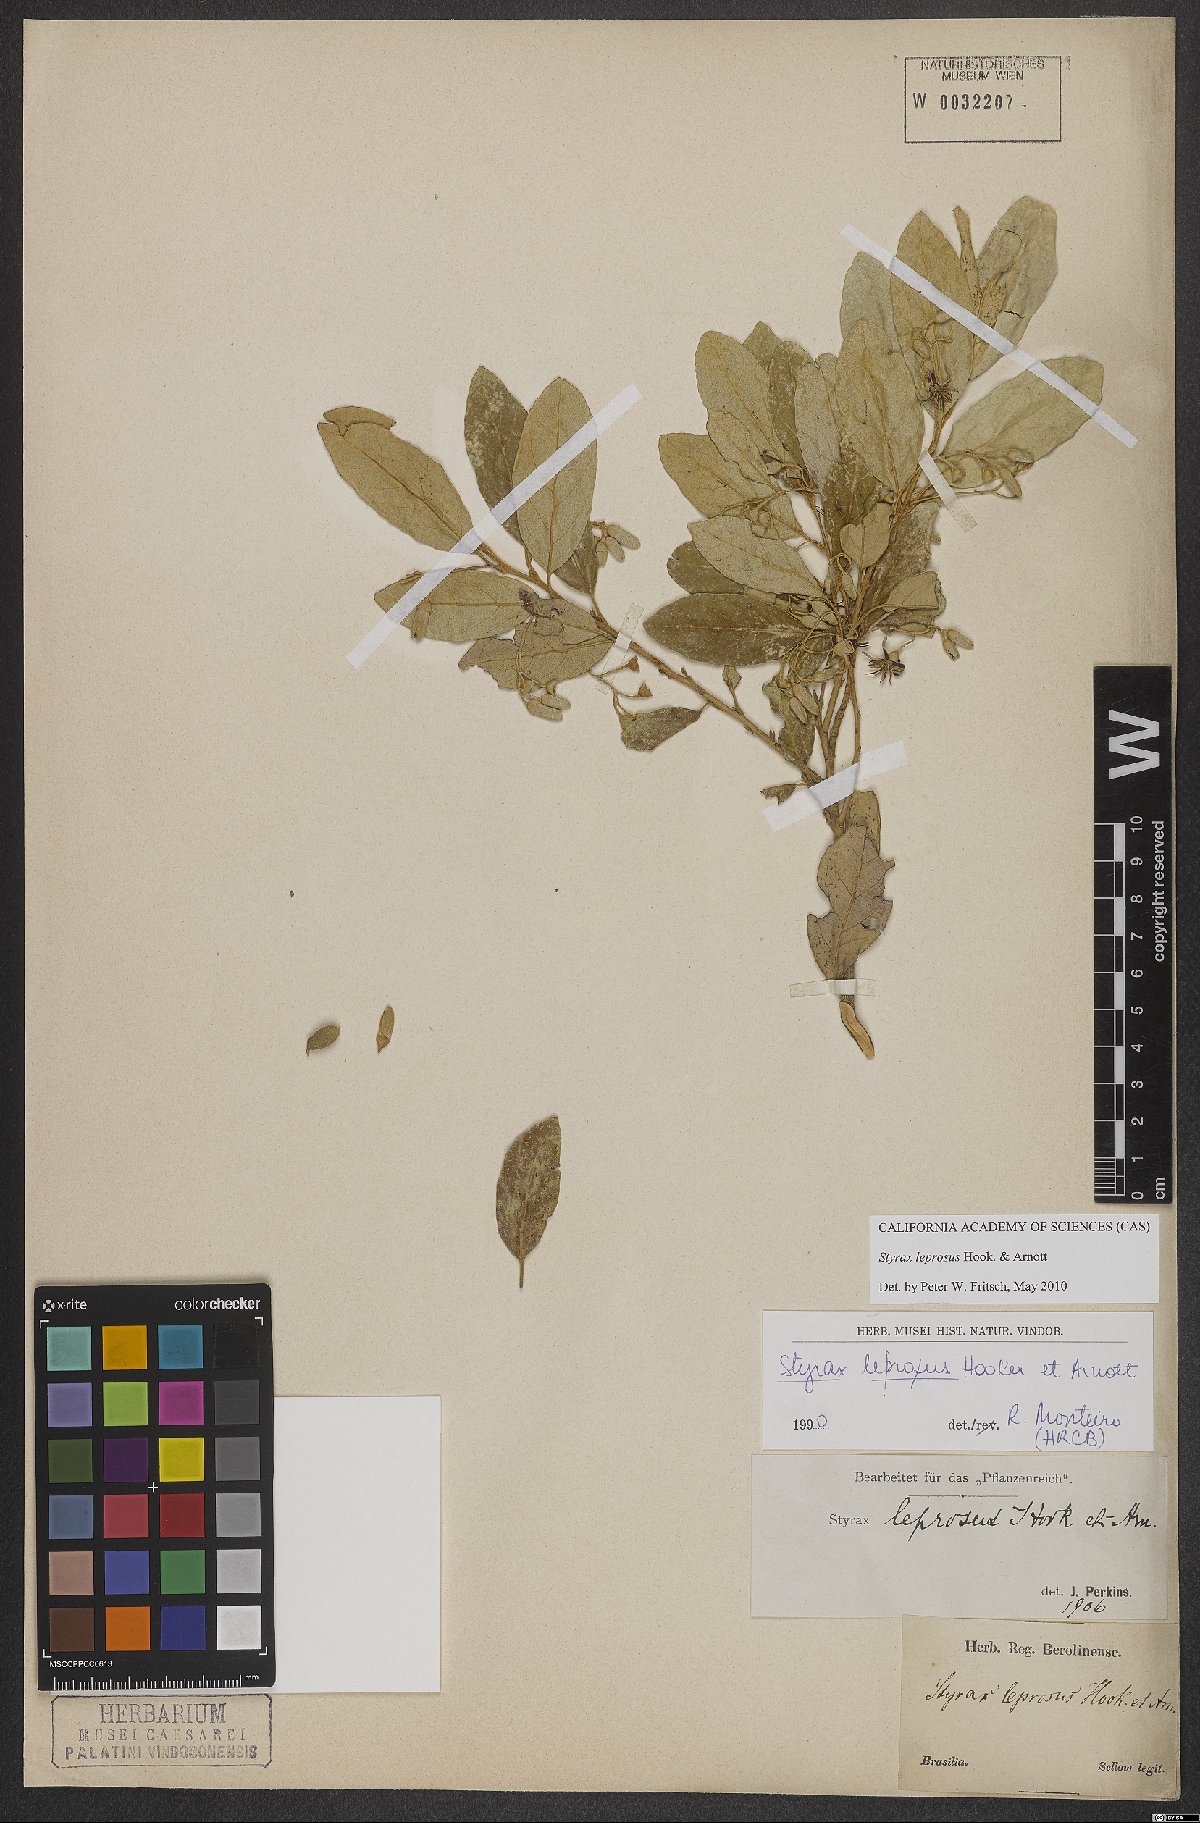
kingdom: Plantae
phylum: Tracheophyta
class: Magnoliopsida
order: Ericales
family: Styracaceae
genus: Styrax
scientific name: Styrax leprosus
